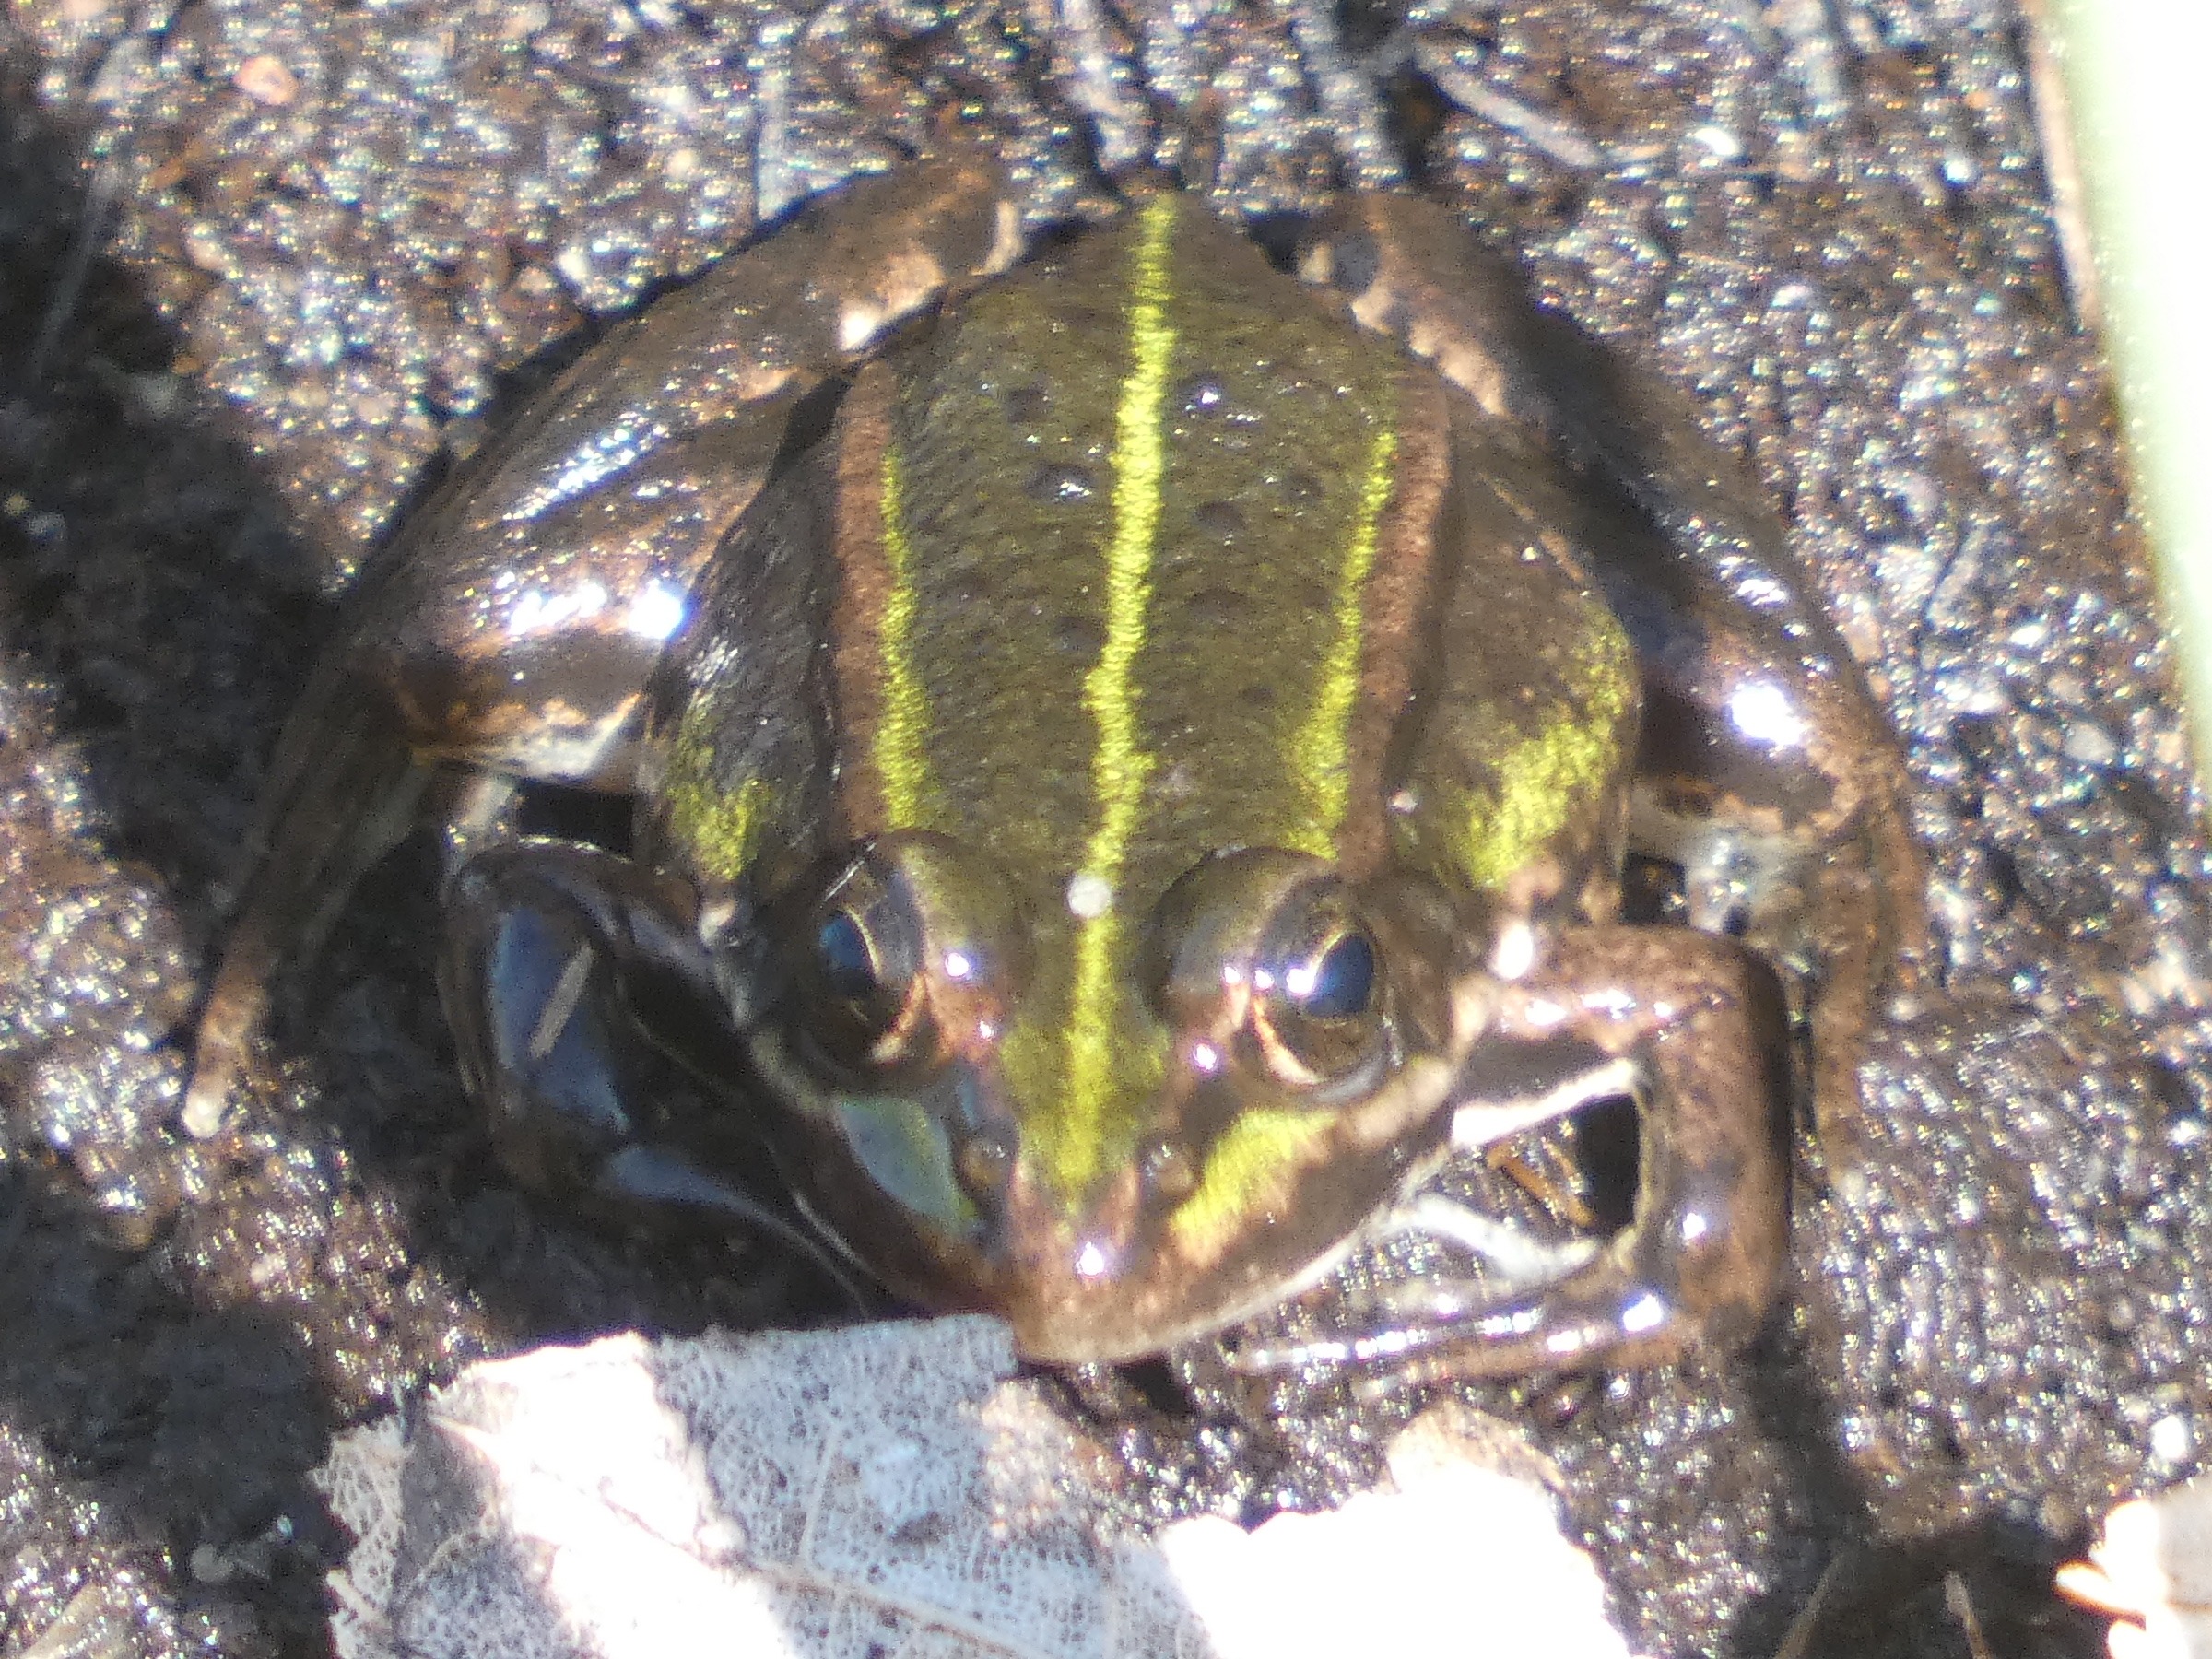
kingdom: Animalia
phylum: Chordata
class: Amphibia
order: Anura
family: Ranidae
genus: Pelophylax
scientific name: Pelophylax lessonae
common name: Grøn frø
